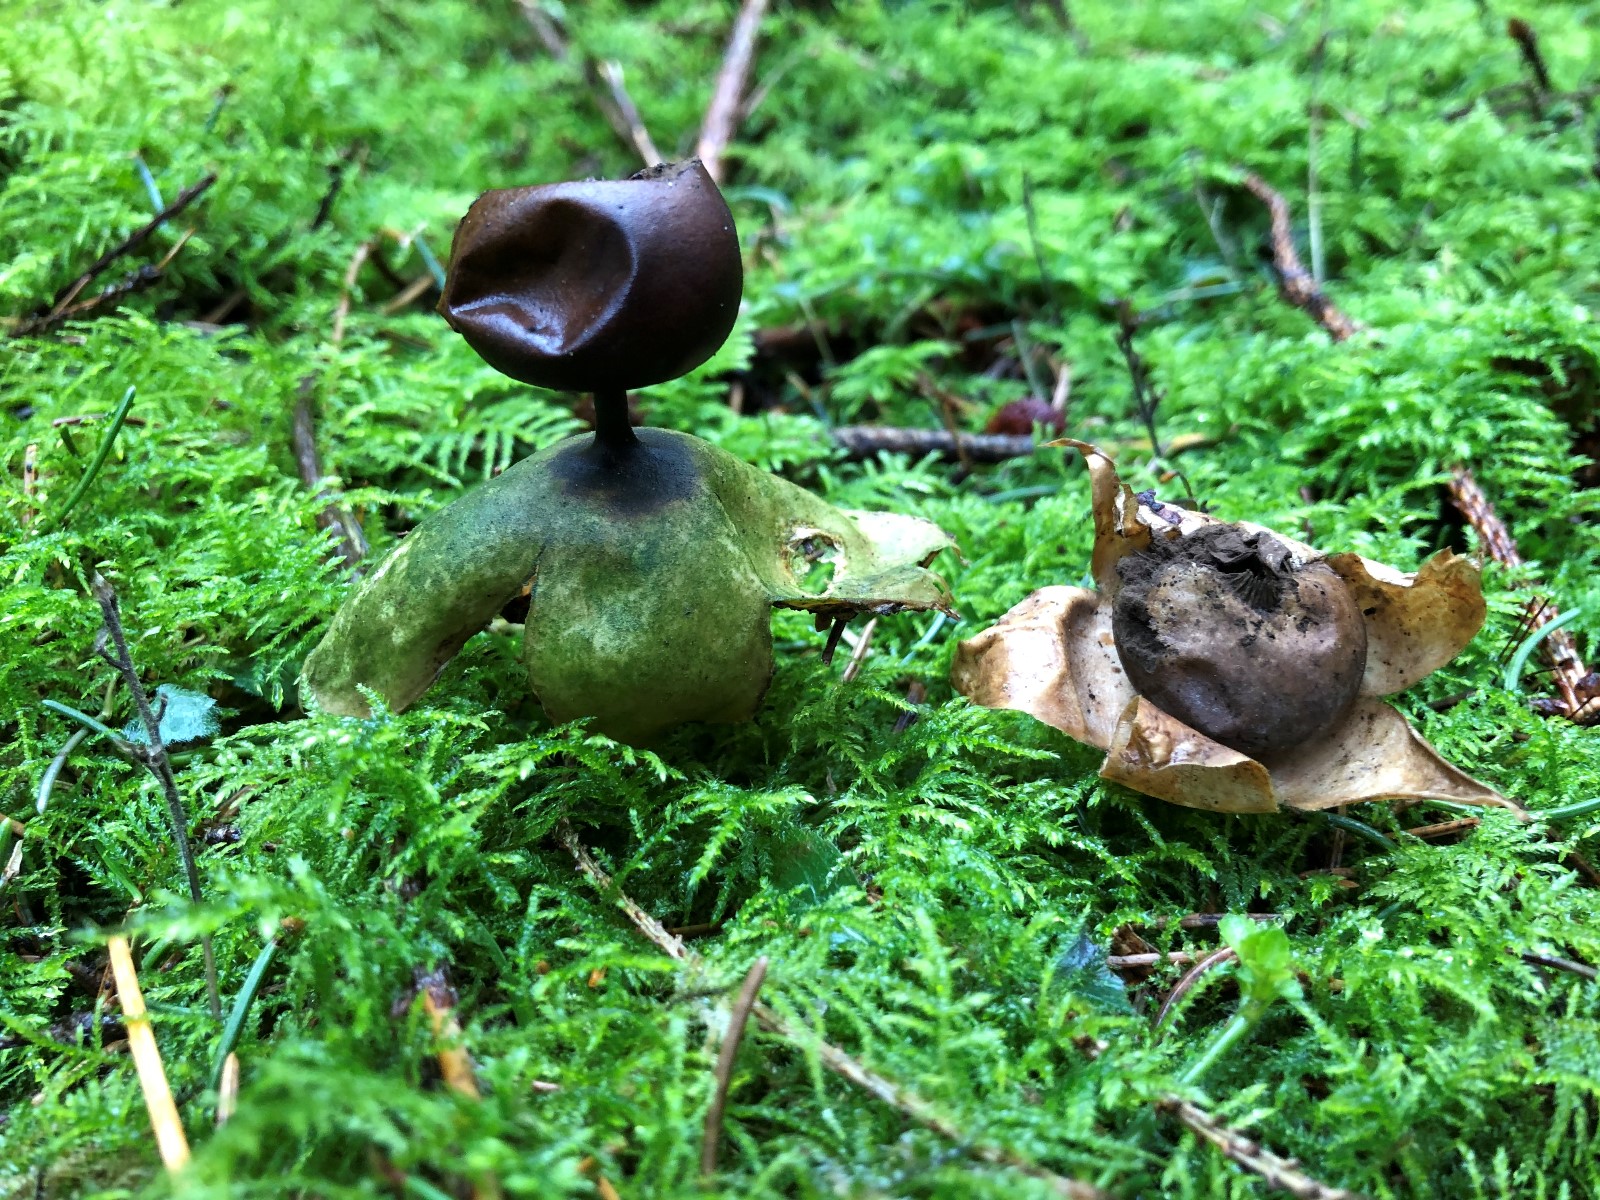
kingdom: Fungi
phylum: Basidiomycota
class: Agaricomycetes
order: Geastrales
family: Geastraceae
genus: Geastrum
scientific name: Geastrum pectinatum
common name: stilket stjernebold
